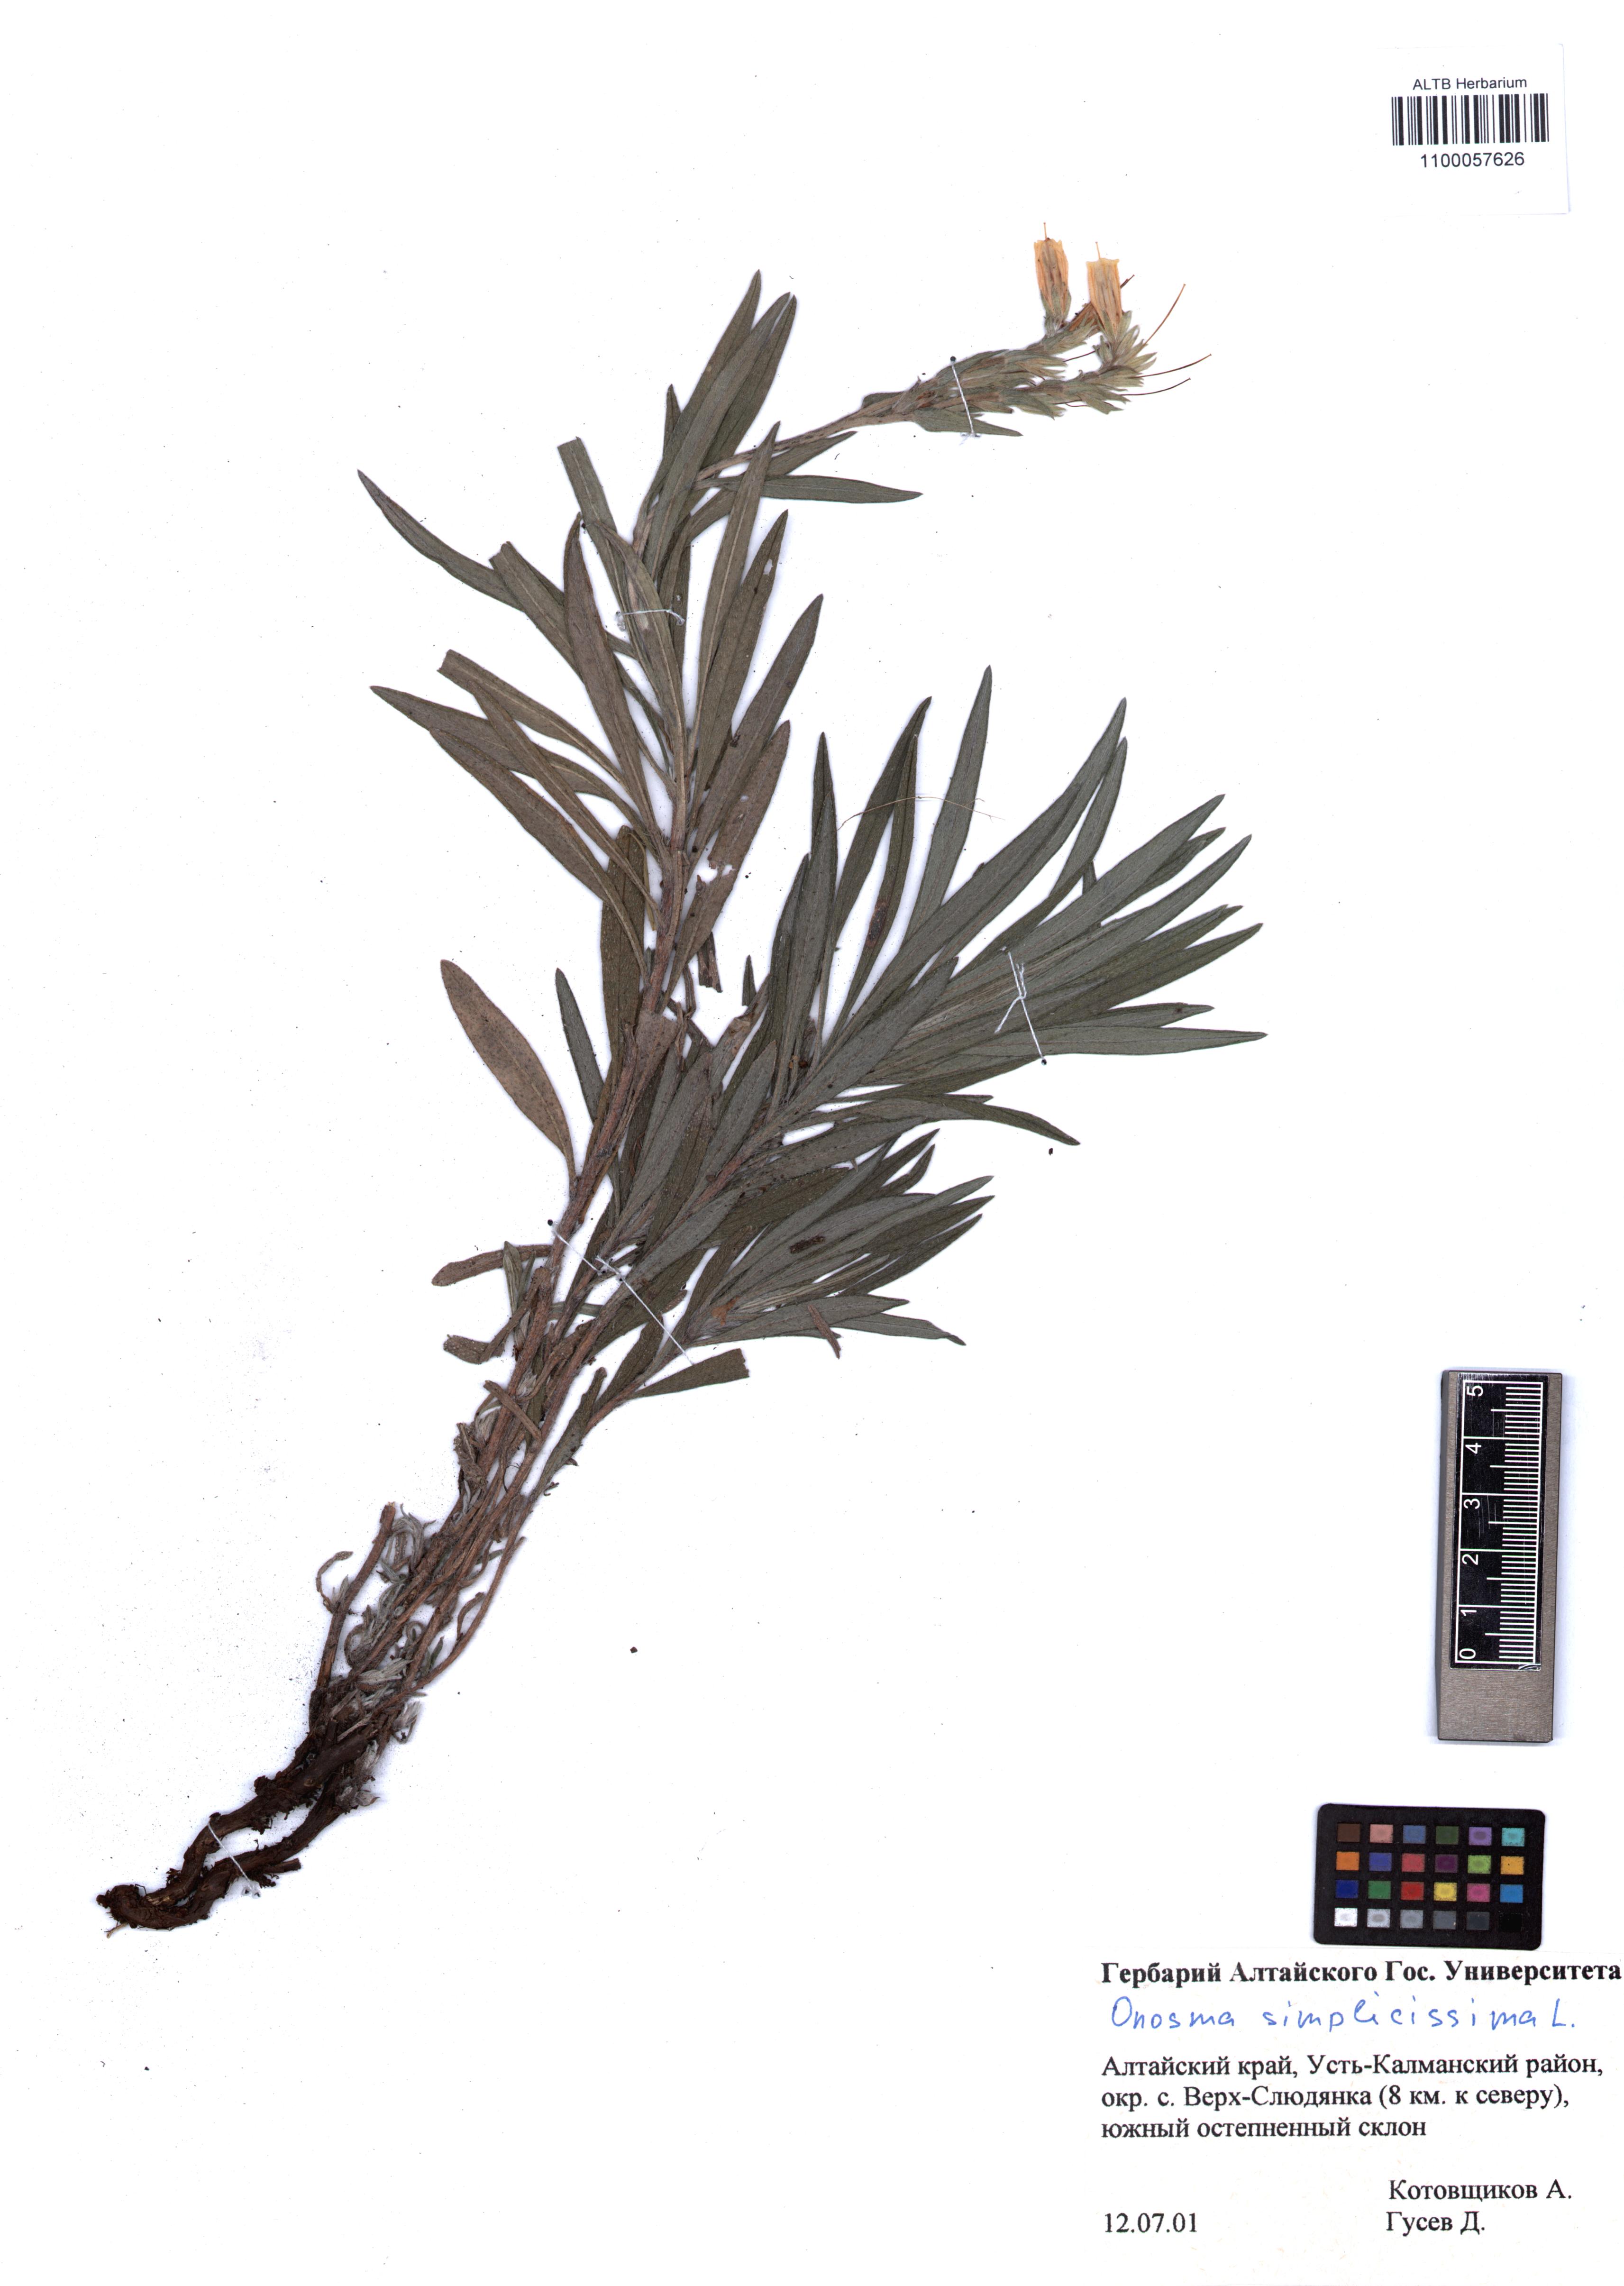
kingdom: Plantae
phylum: Tracheophyta
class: Magnoliopsida
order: Boraginales
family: Boraginaceae
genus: Onosma
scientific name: Onosma simplicissima
